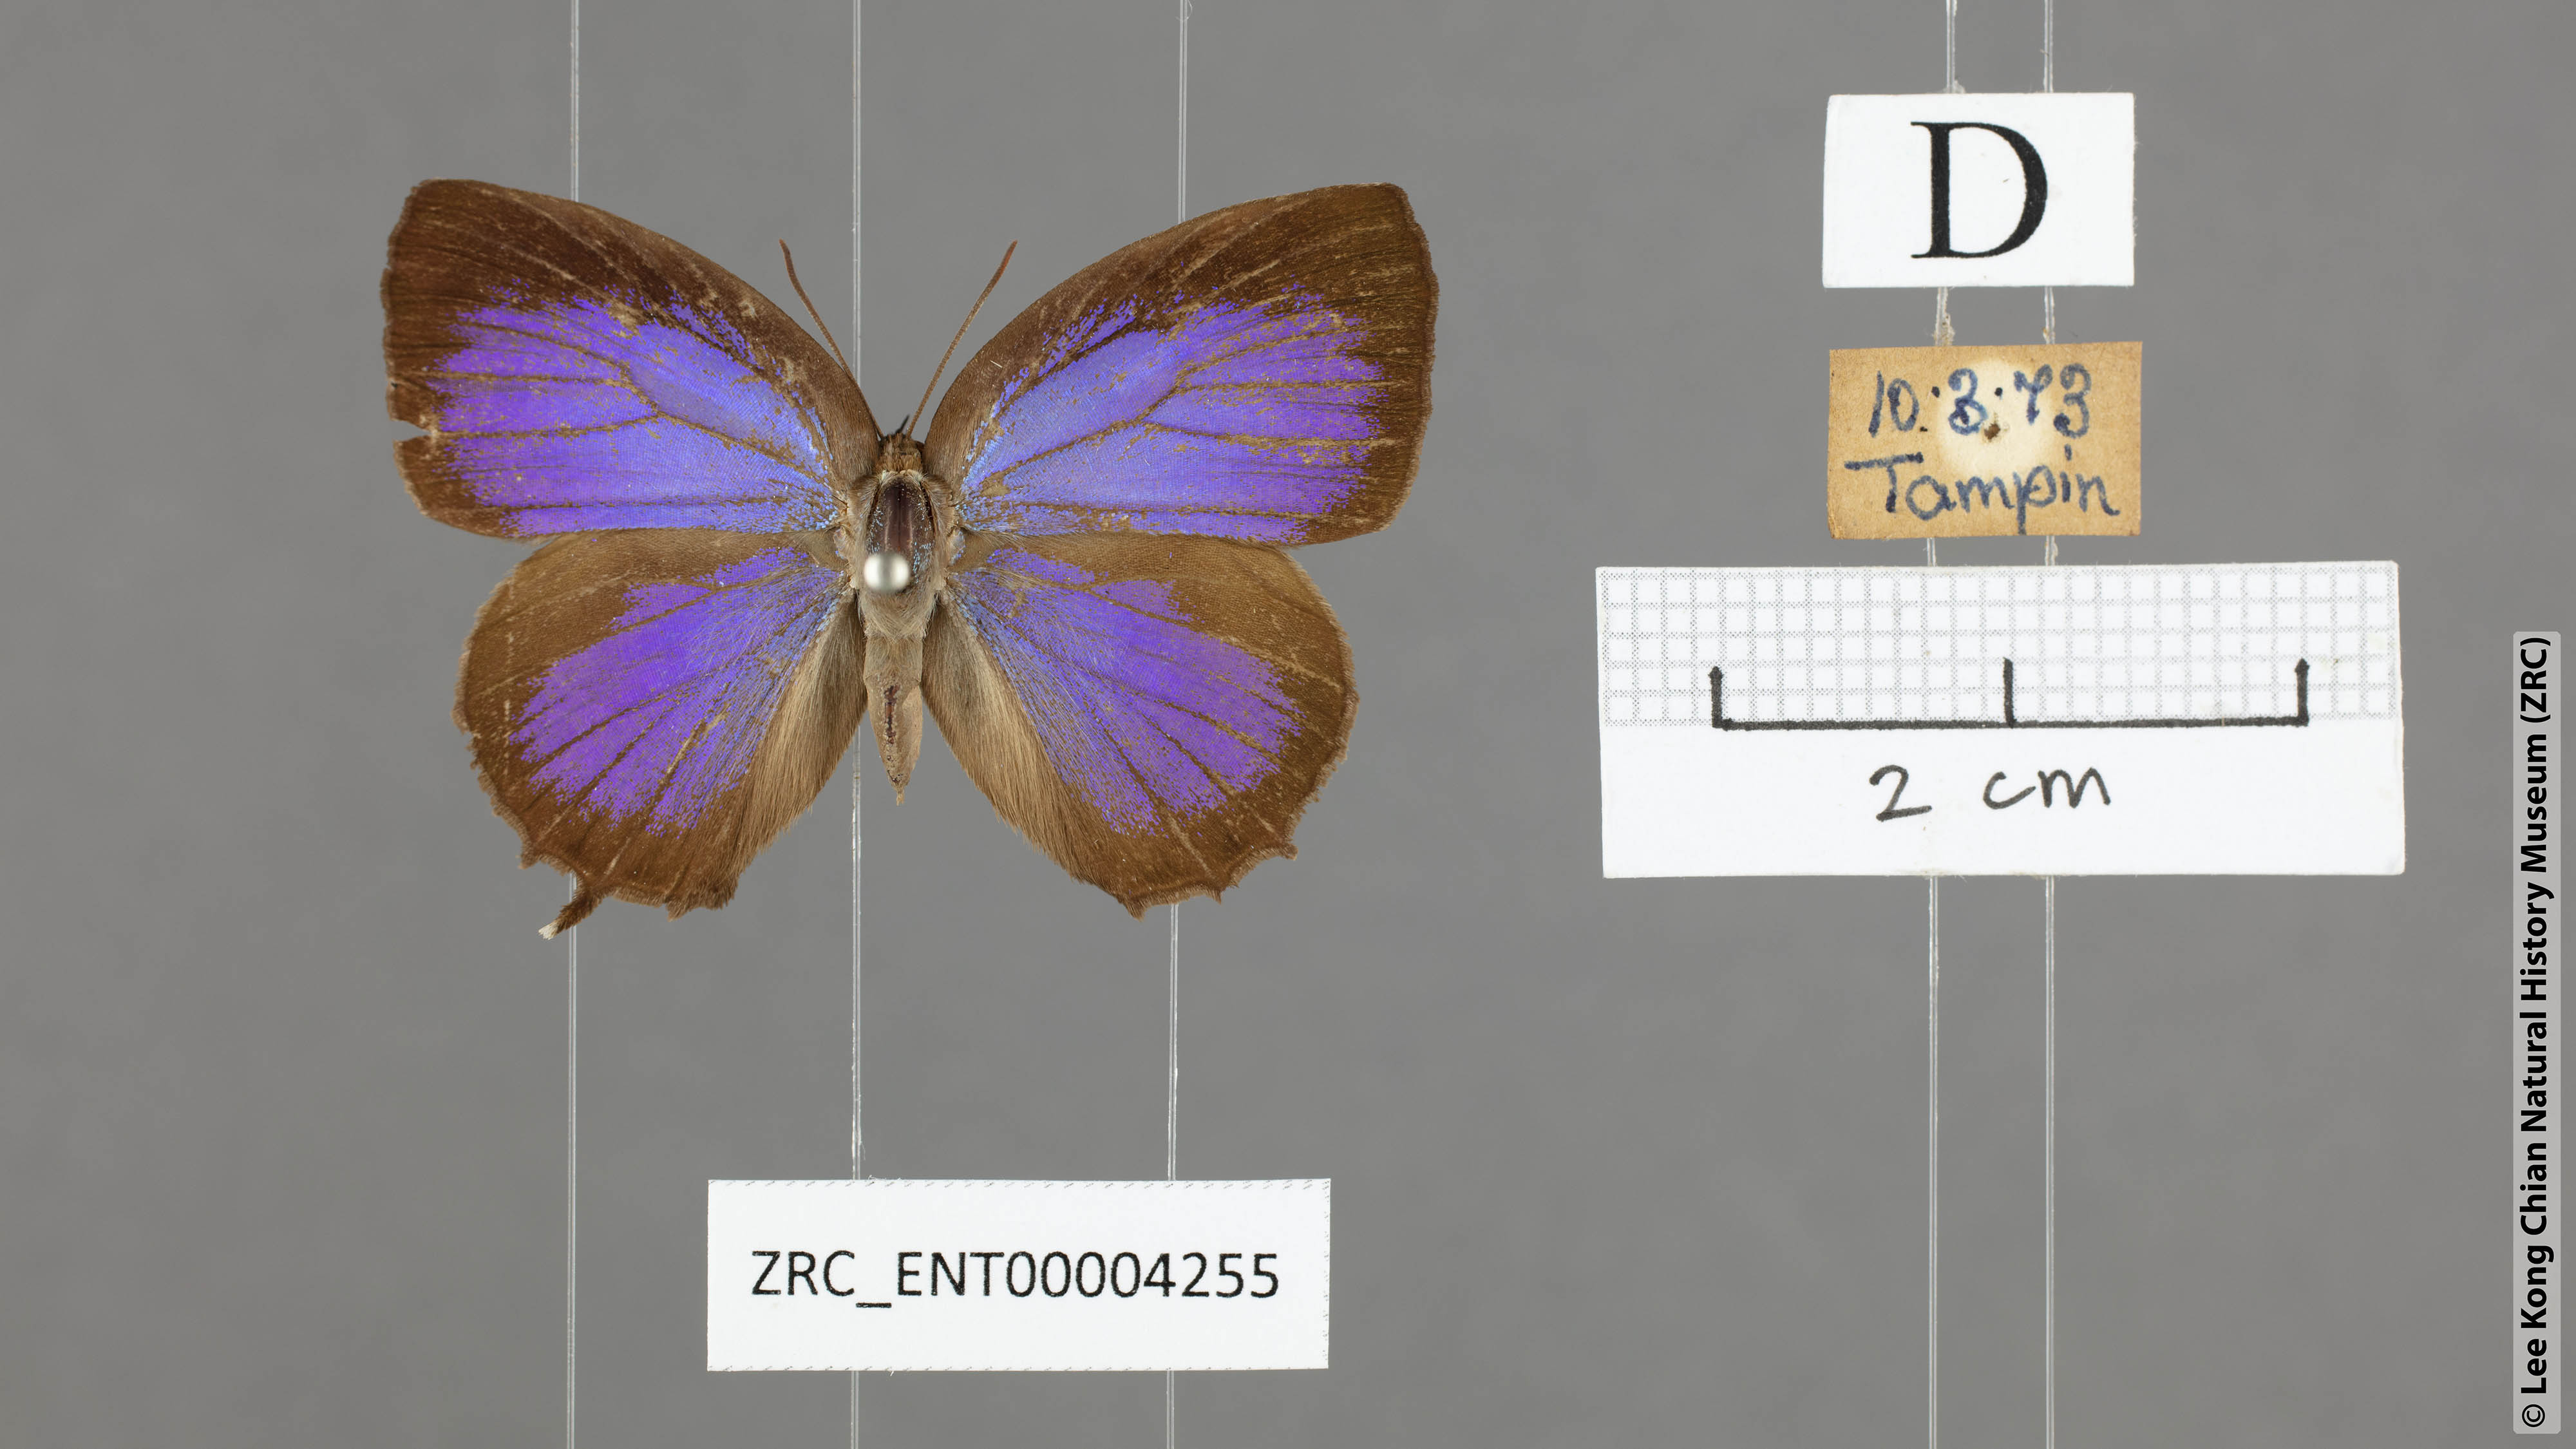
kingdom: Animalia
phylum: Arthropoda
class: Insecta
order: Lepidoptera
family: Lycaenidae
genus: Flos
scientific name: Flos apidanus
